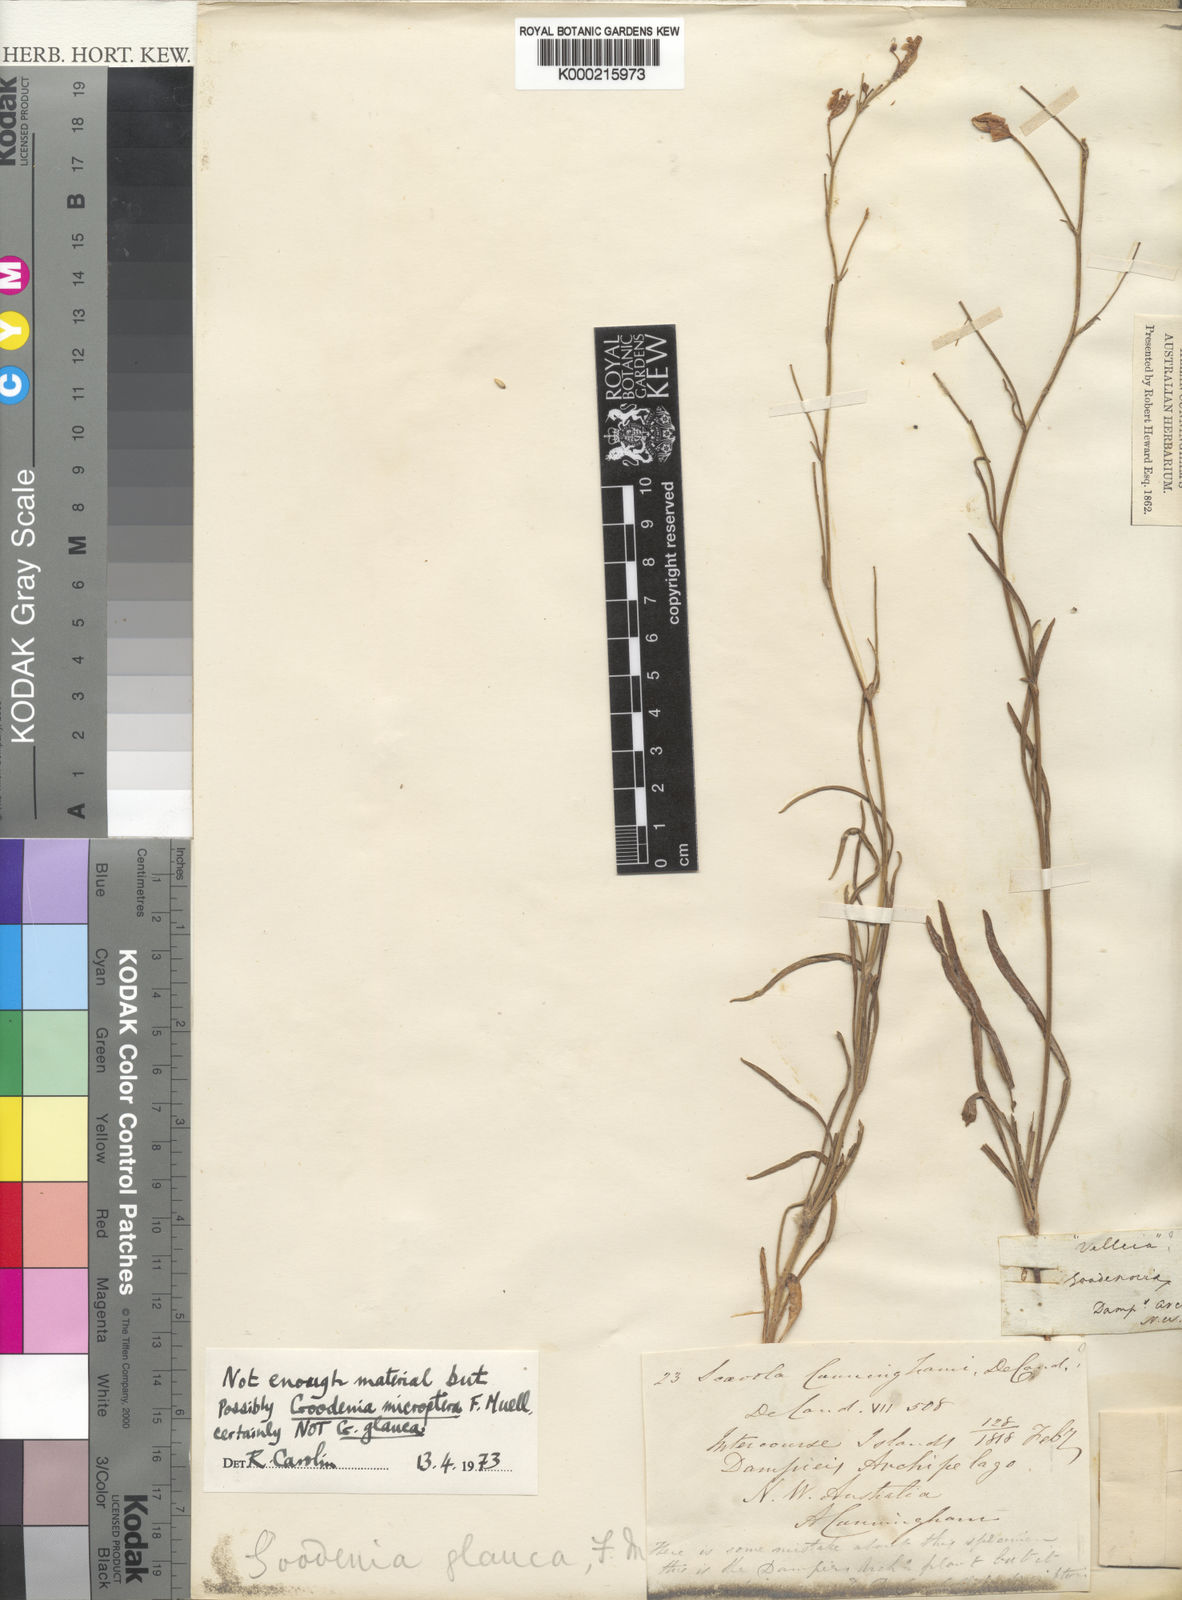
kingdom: Plantae
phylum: Tracheophyta
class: Magnoliopsida
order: Asterales
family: Goodeniaceae
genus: Goodenia
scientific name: Goodenia microptera
